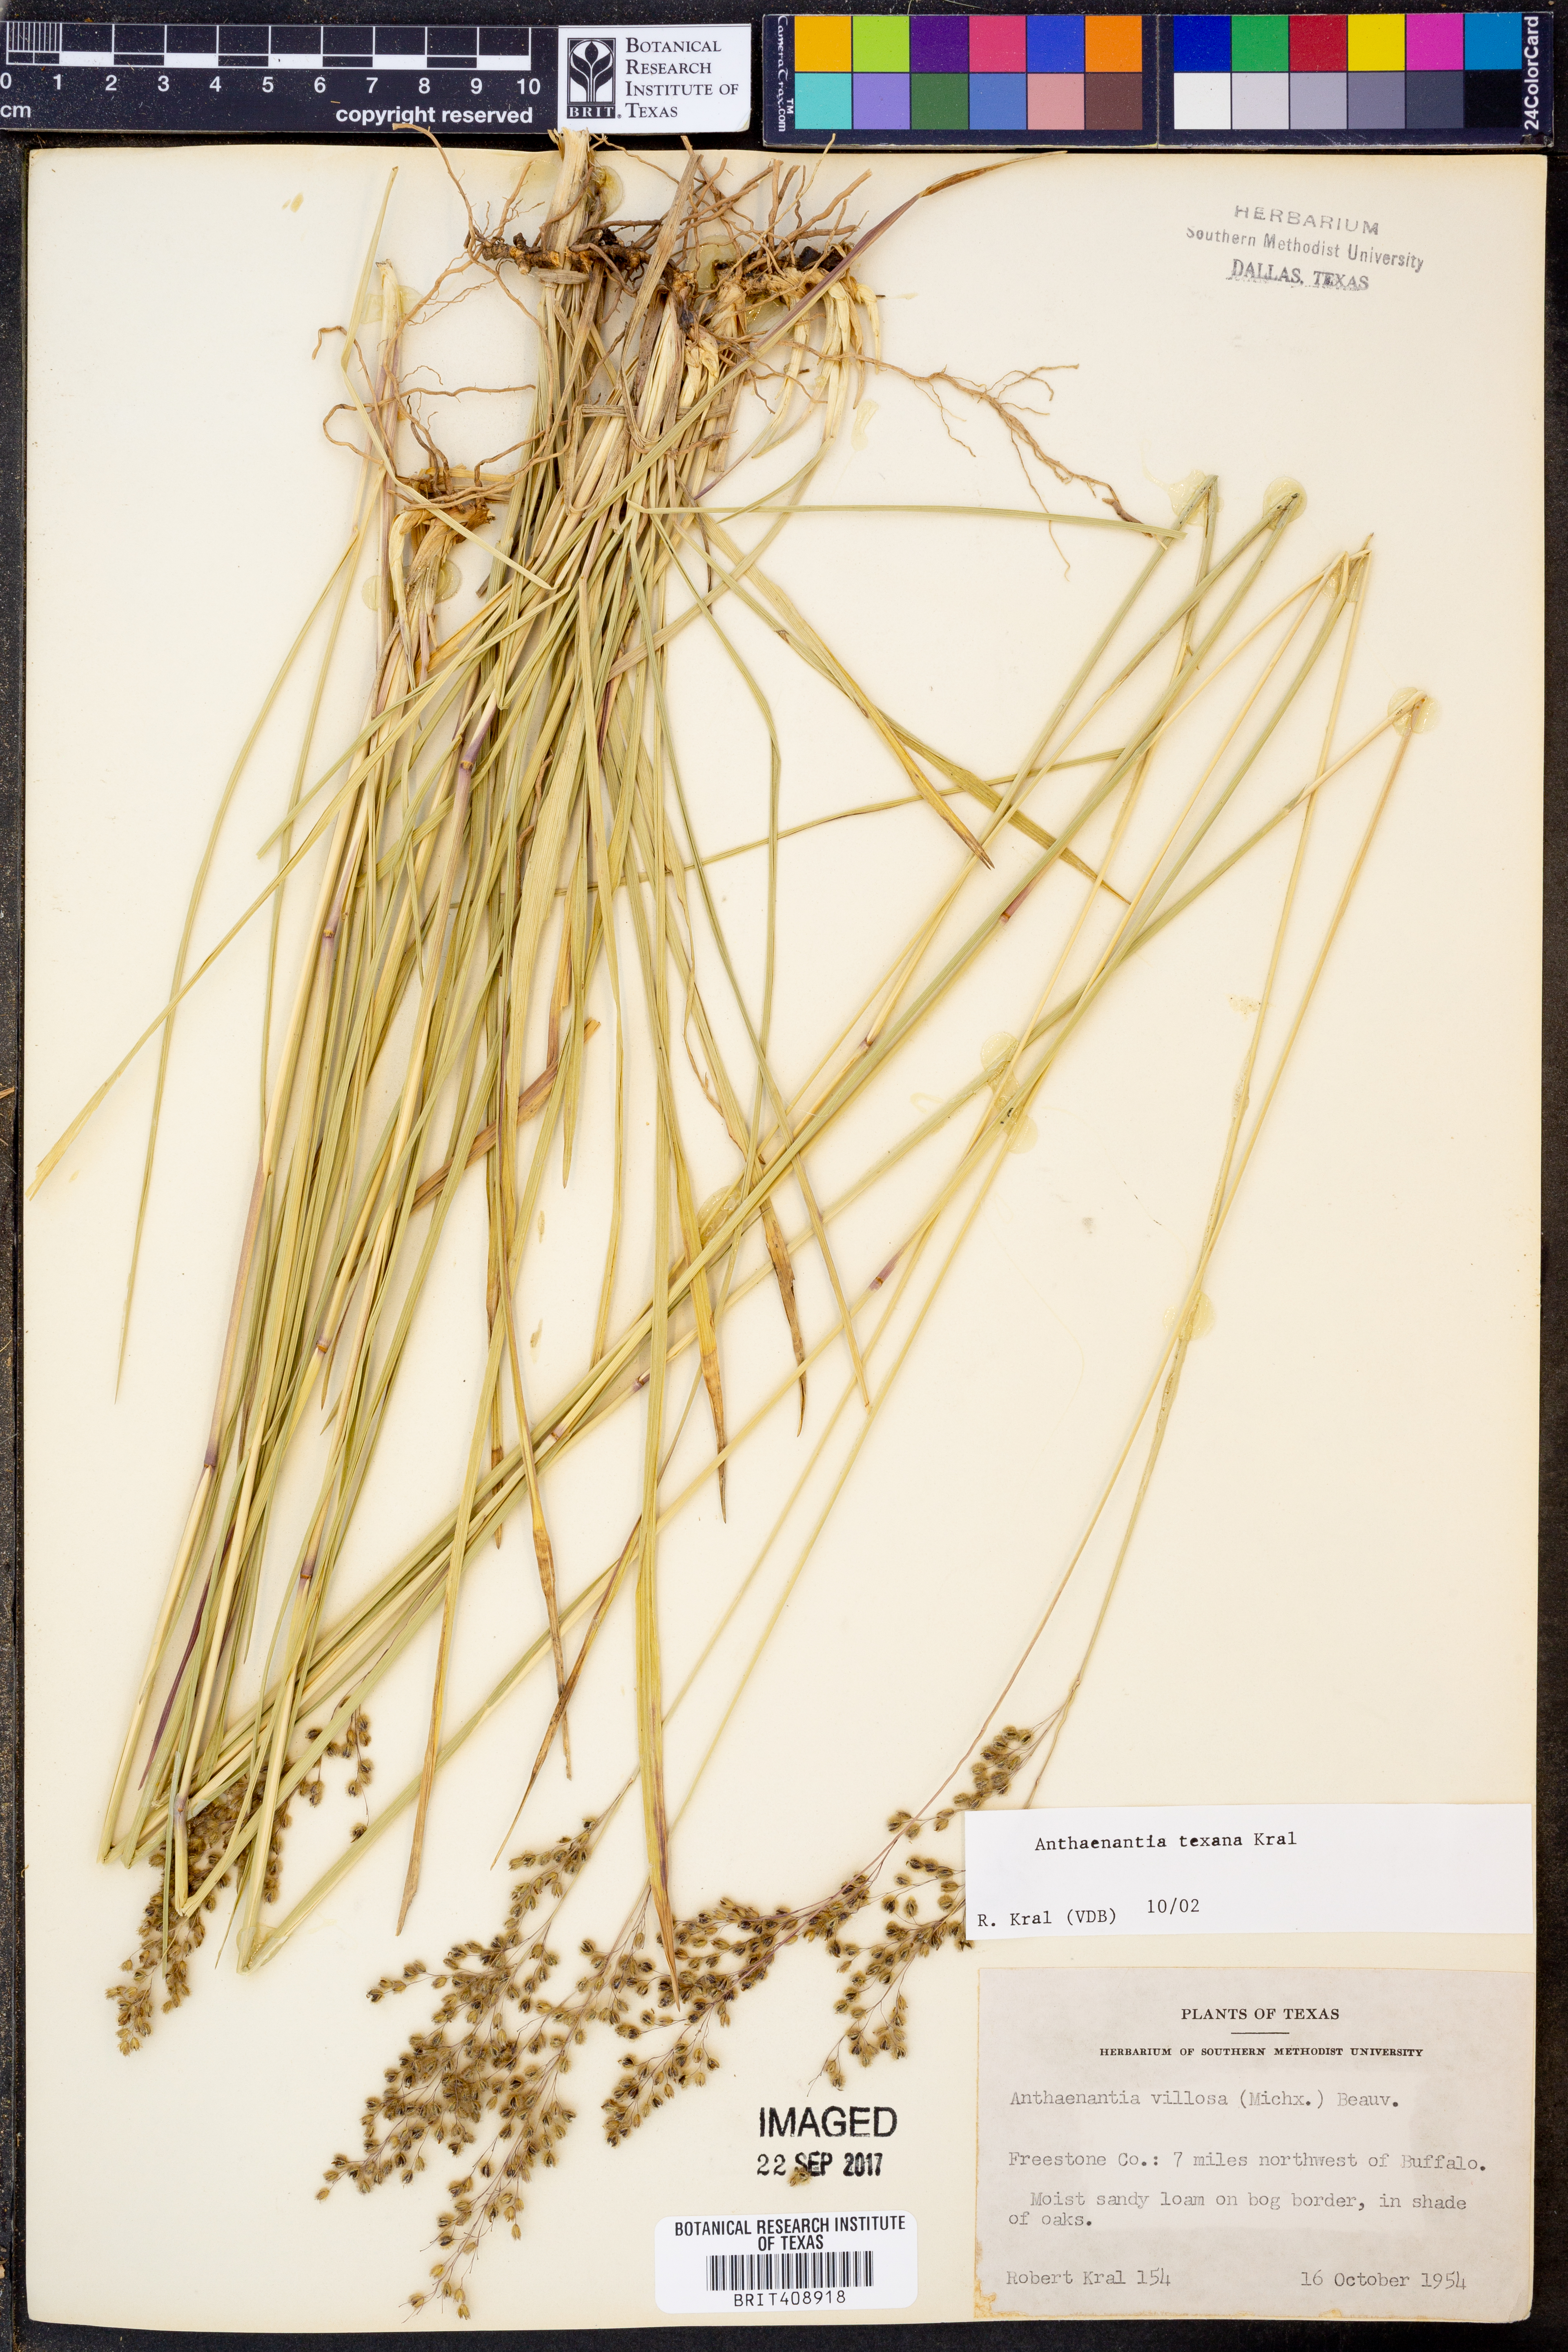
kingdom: Plantae
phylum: Tracheophyta
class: Liliopsida
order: Poales
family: Poaceae
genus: Anthaenantia
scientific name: Anthaenantia texana
